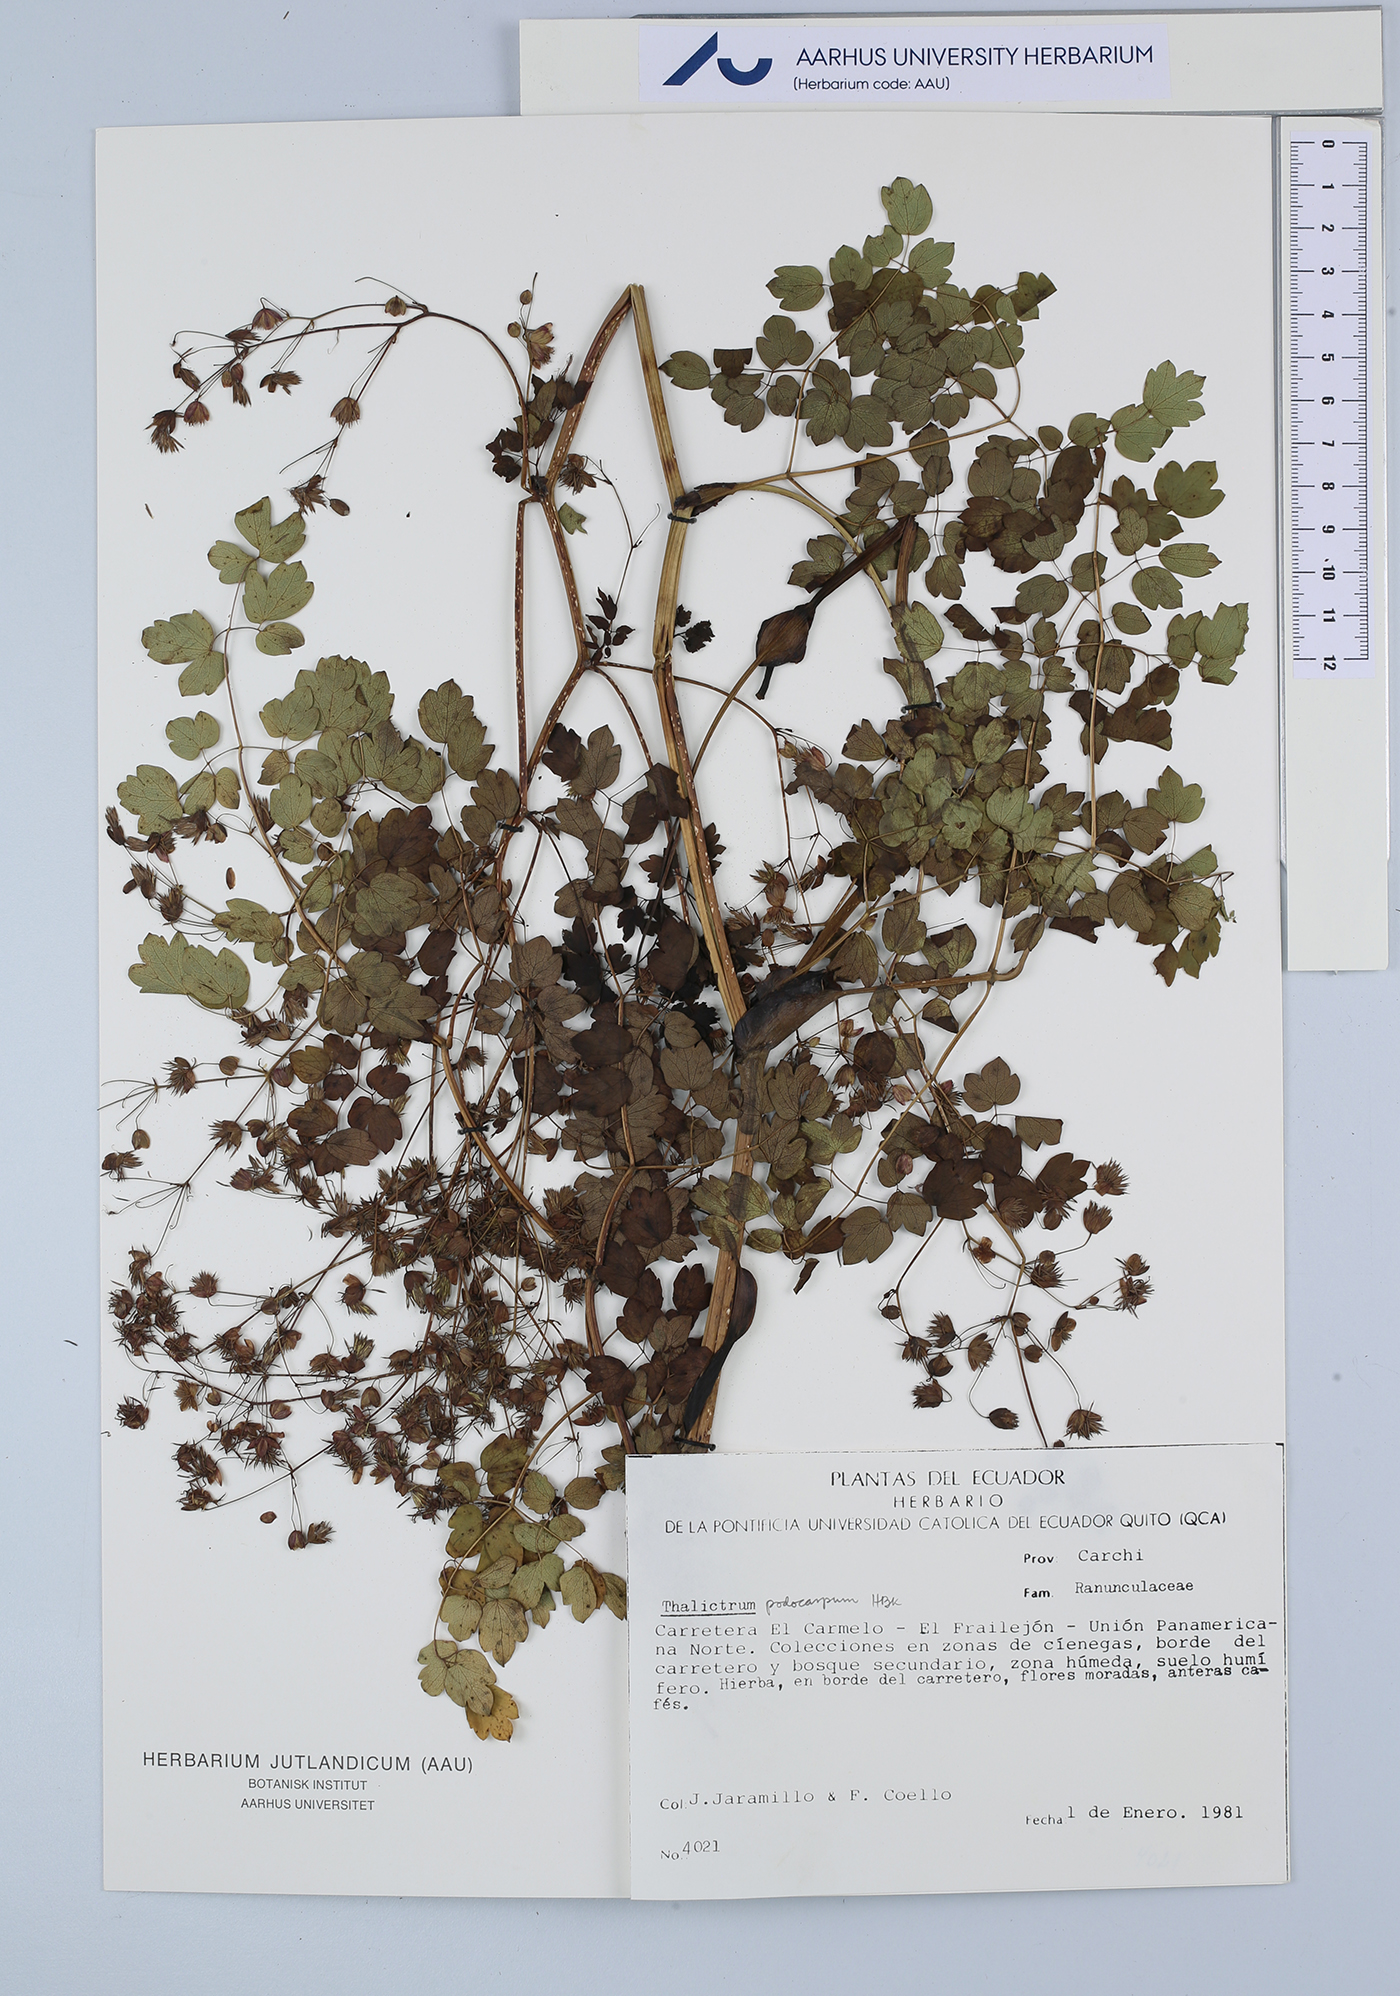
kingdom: Plantae
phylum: Tracheophyta
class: Magnoliopsida
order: Ranunculales
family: Ranunculaceae
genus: Thalictrum
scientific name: Thalictrum podocarpum
